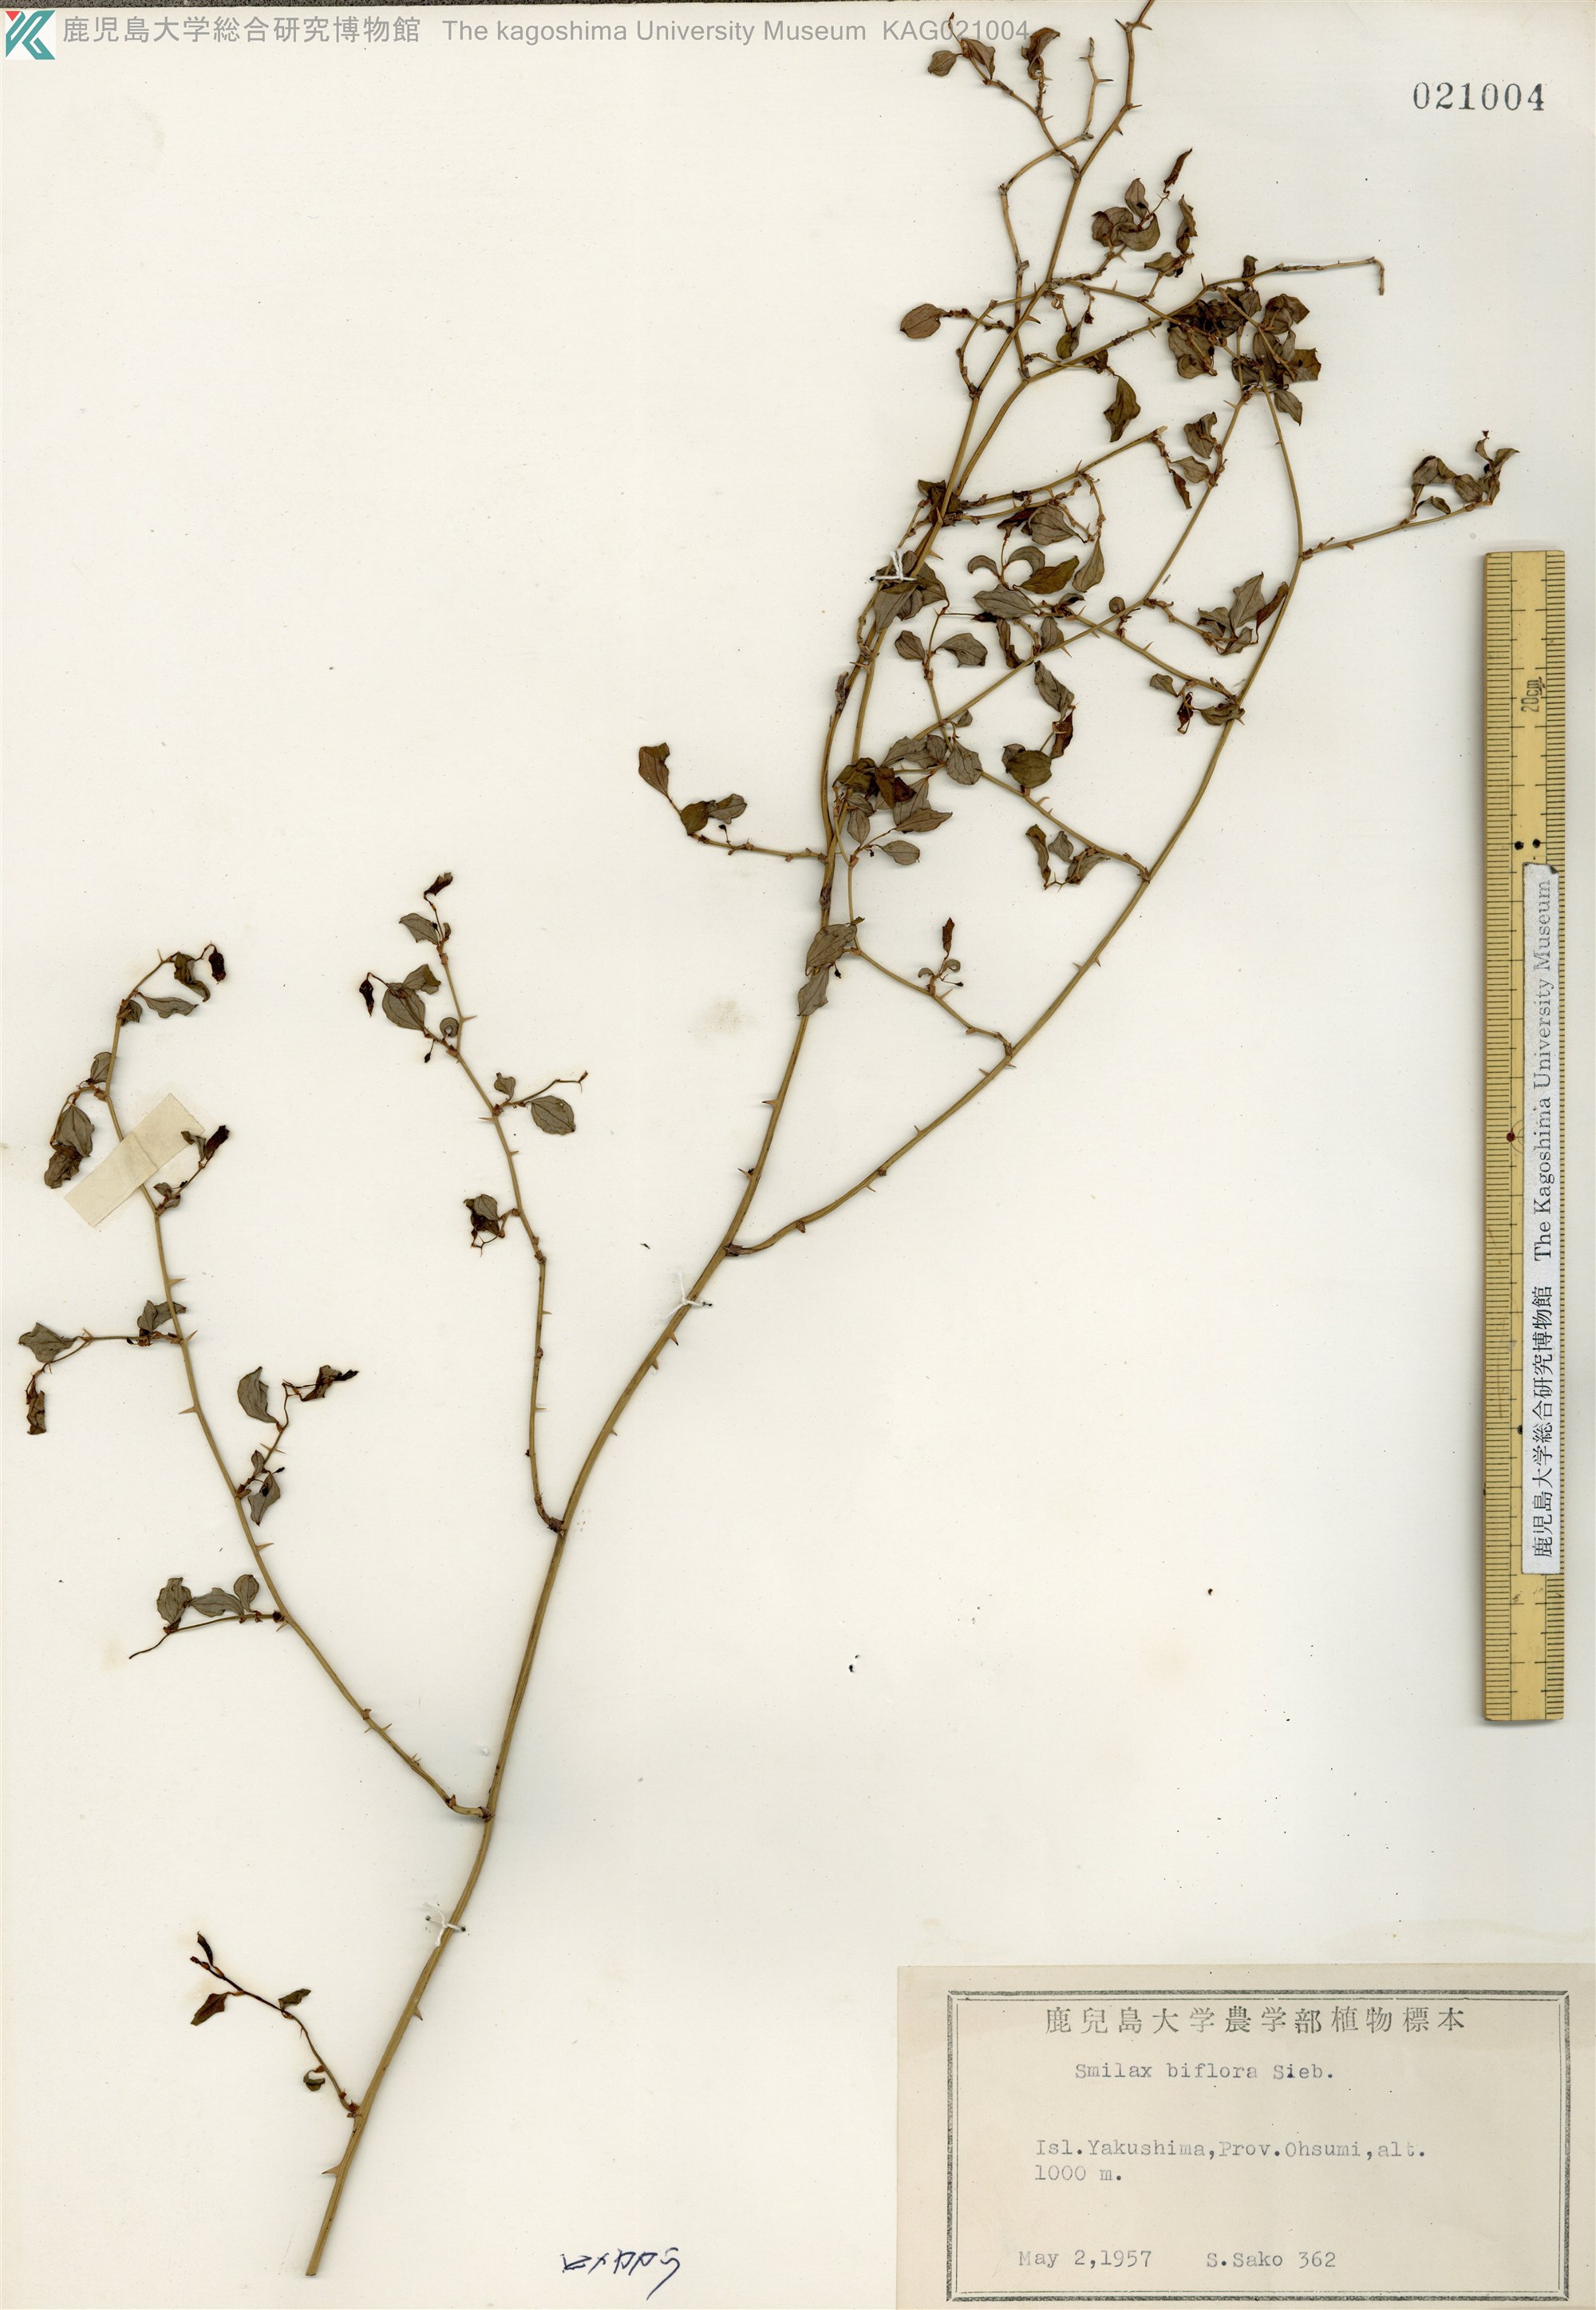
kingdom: Plantae
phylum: Tracheophyta
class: Liliopsida
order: Liliales
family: Smilacaceae
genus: Smilax
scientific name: Smilax biflora
